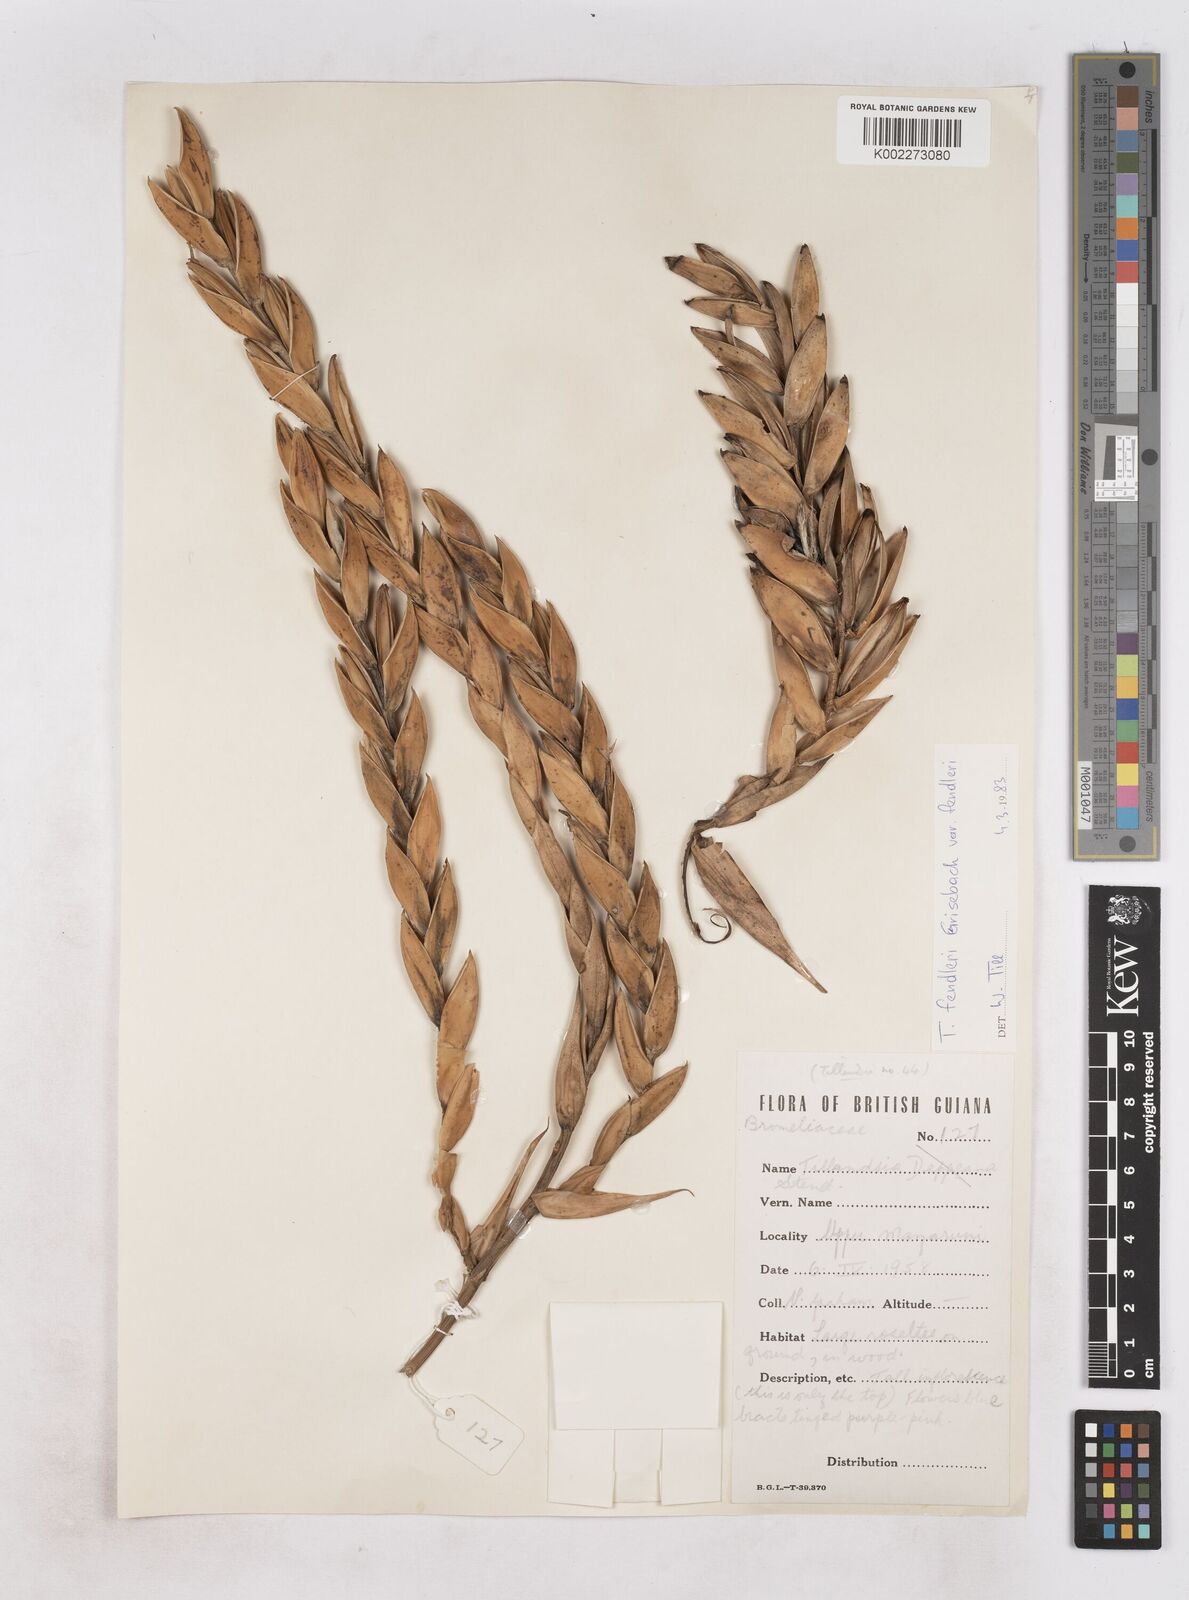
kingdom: Plantae
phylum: Tracheophyta
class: Liliopsida
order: Poales
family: Bromeliaceae
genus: Tillandsia
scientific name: Tillandsia fendleri
